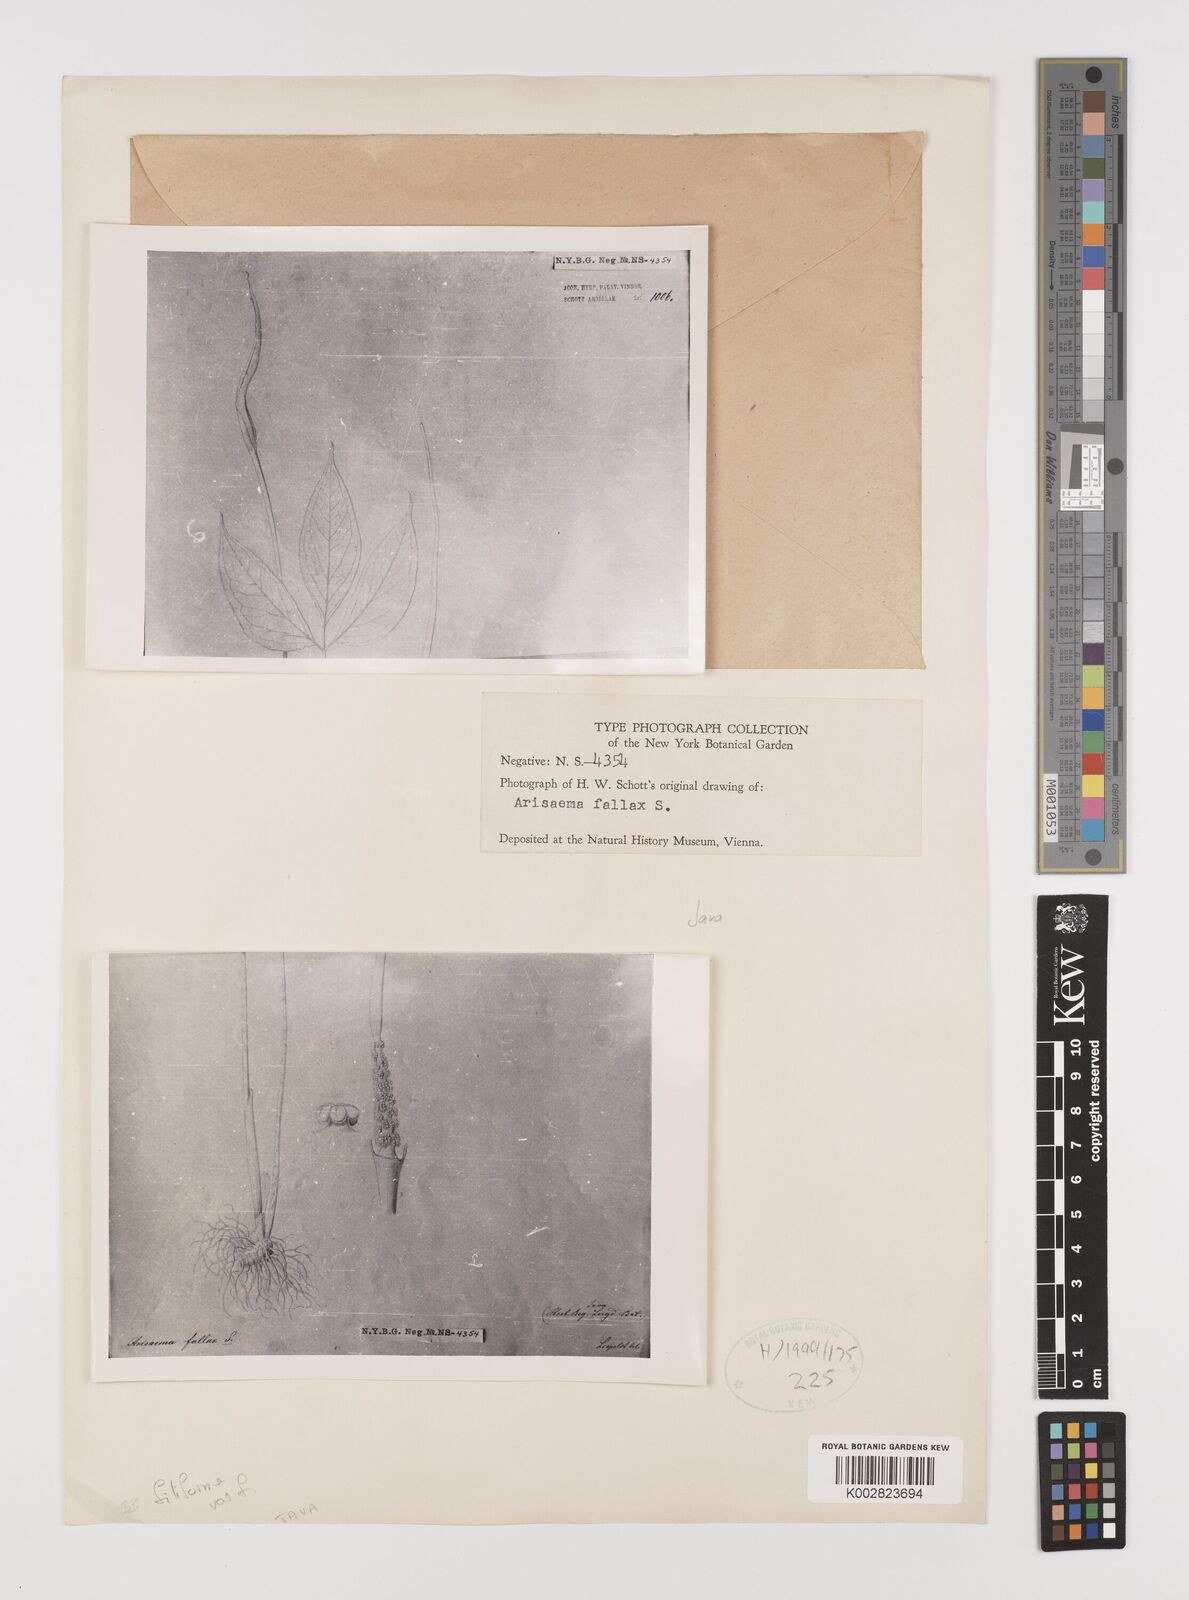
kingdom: Plantae
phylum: Tracheophyta
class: Liliopsida
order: Alismatales
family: Araceae
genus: Arisaema
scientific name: Arisaema filiforme
